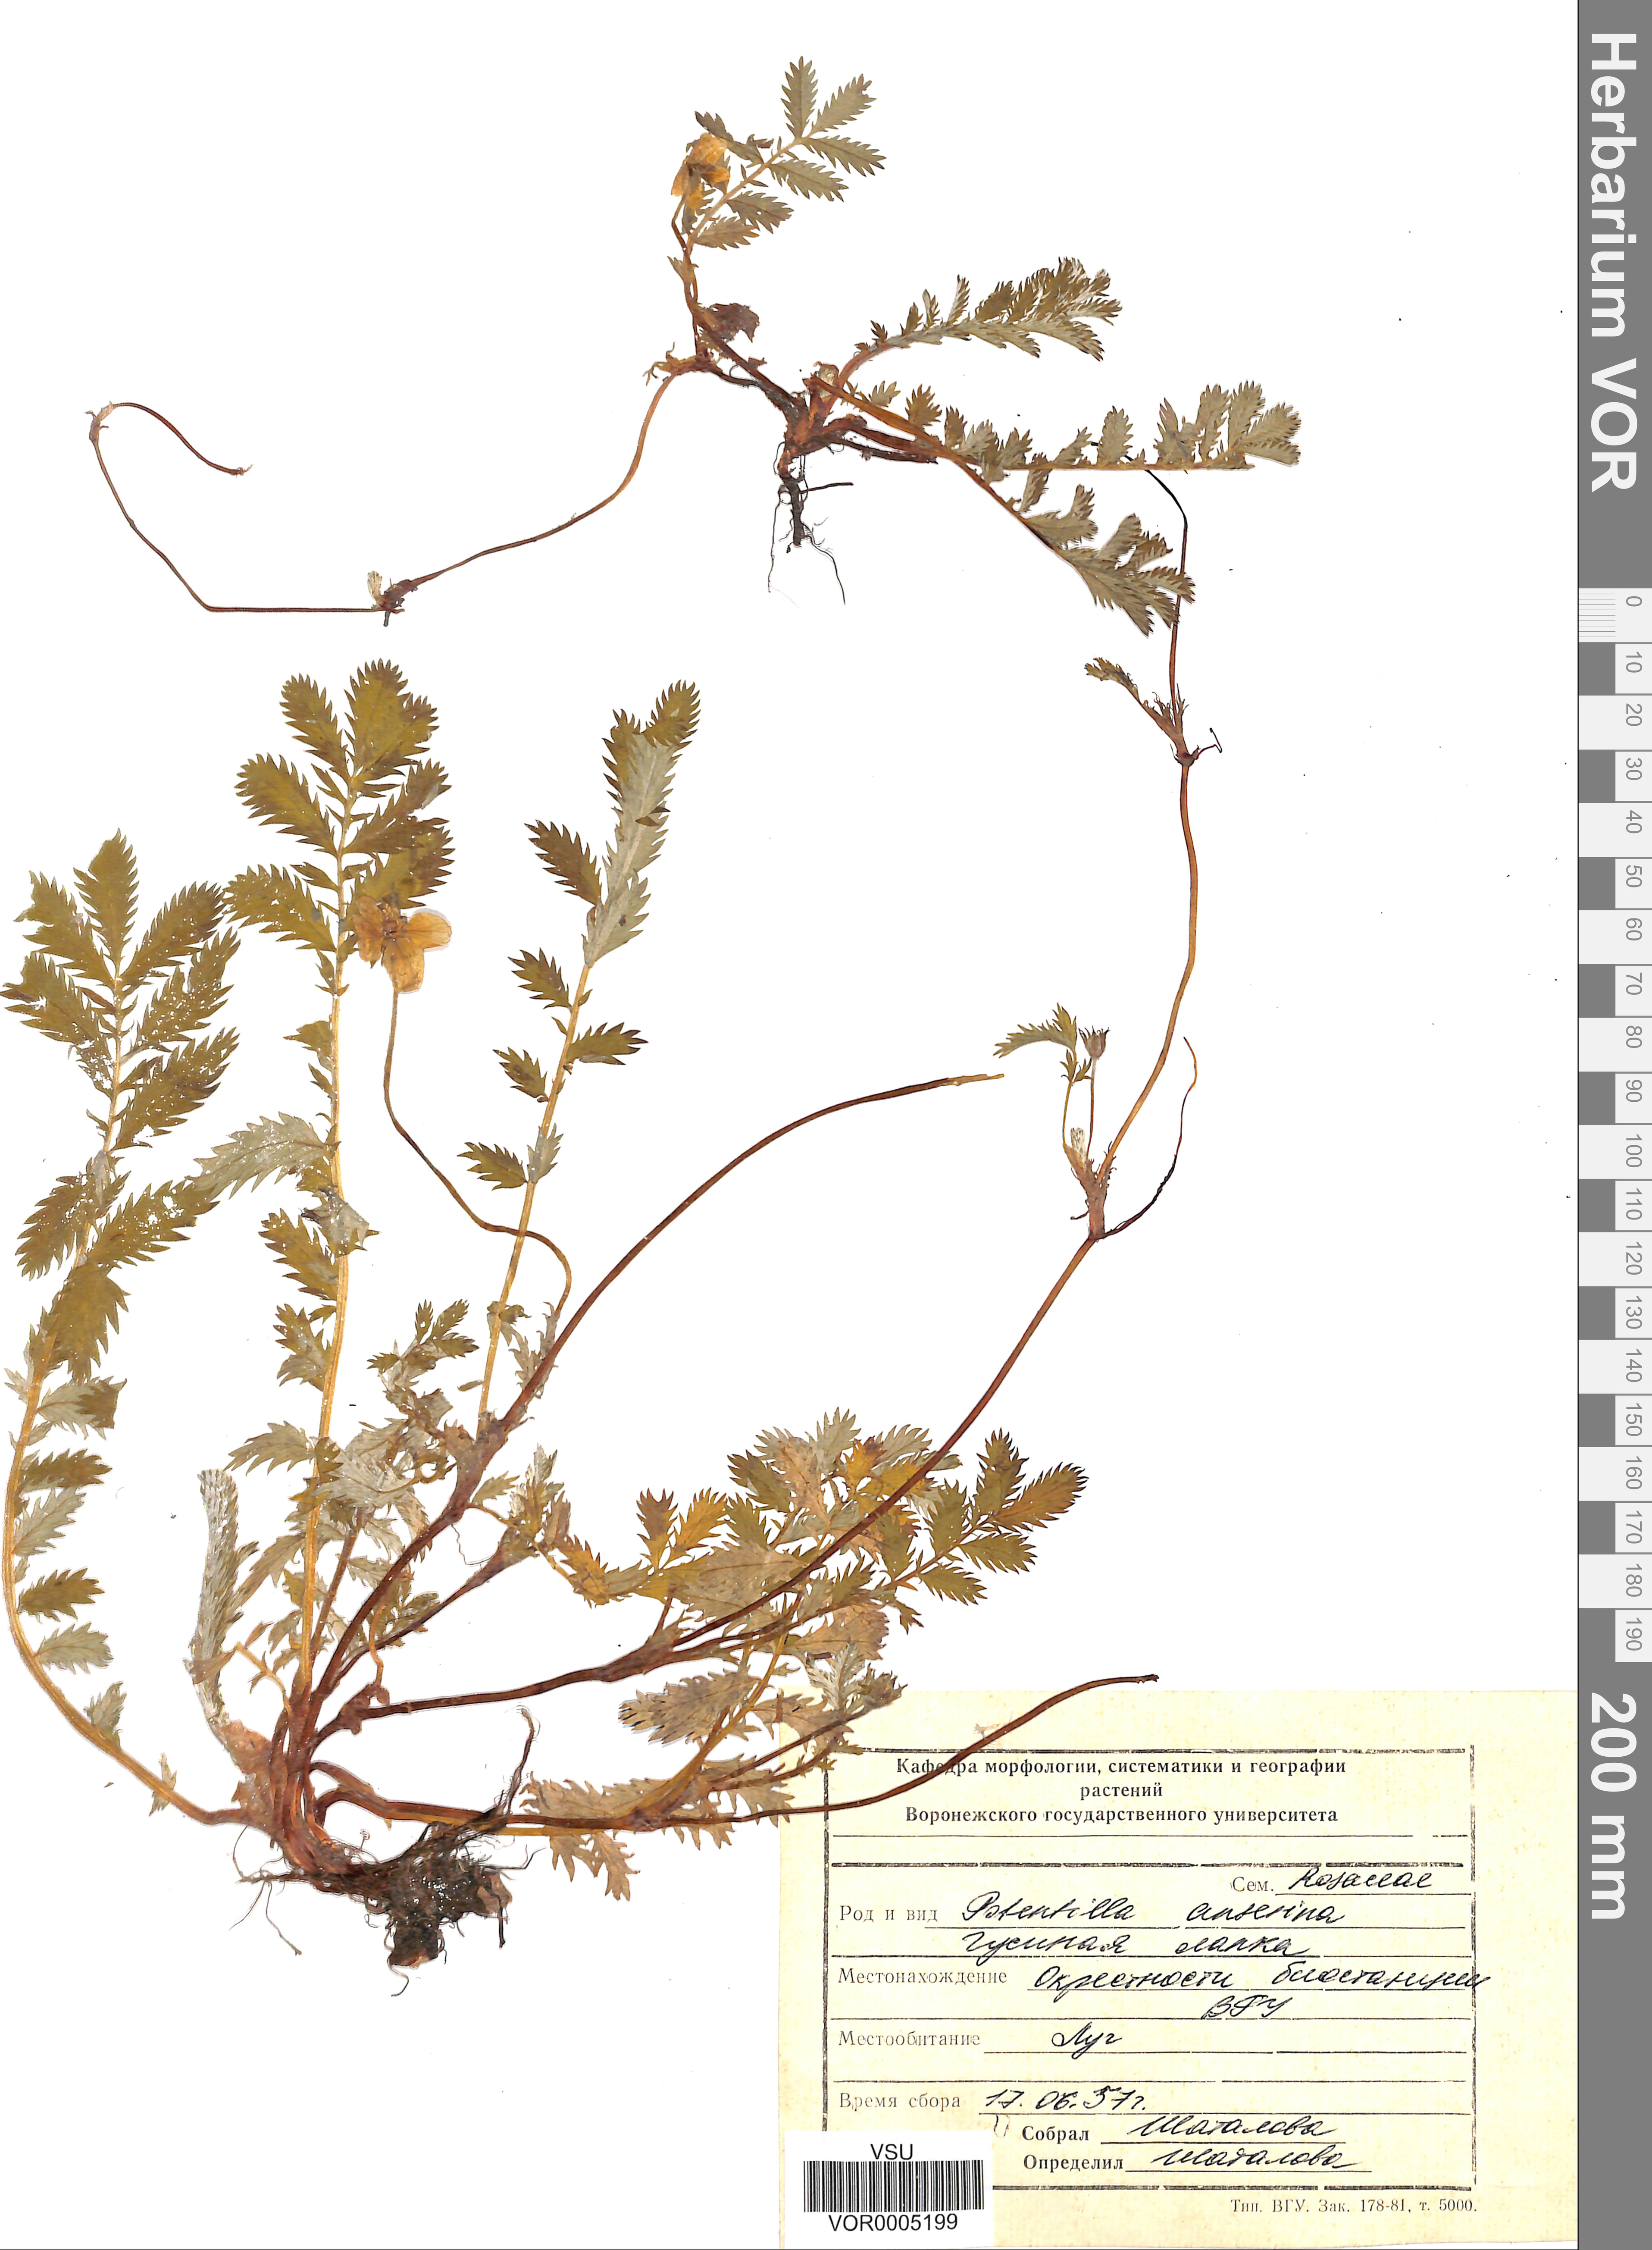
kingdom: Plantae
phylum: Tracheophyta
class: Magnoliopsida
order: Rosales
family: Rosaceae
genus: Argentina
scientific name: Argentina anserina
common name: Common silverweed
